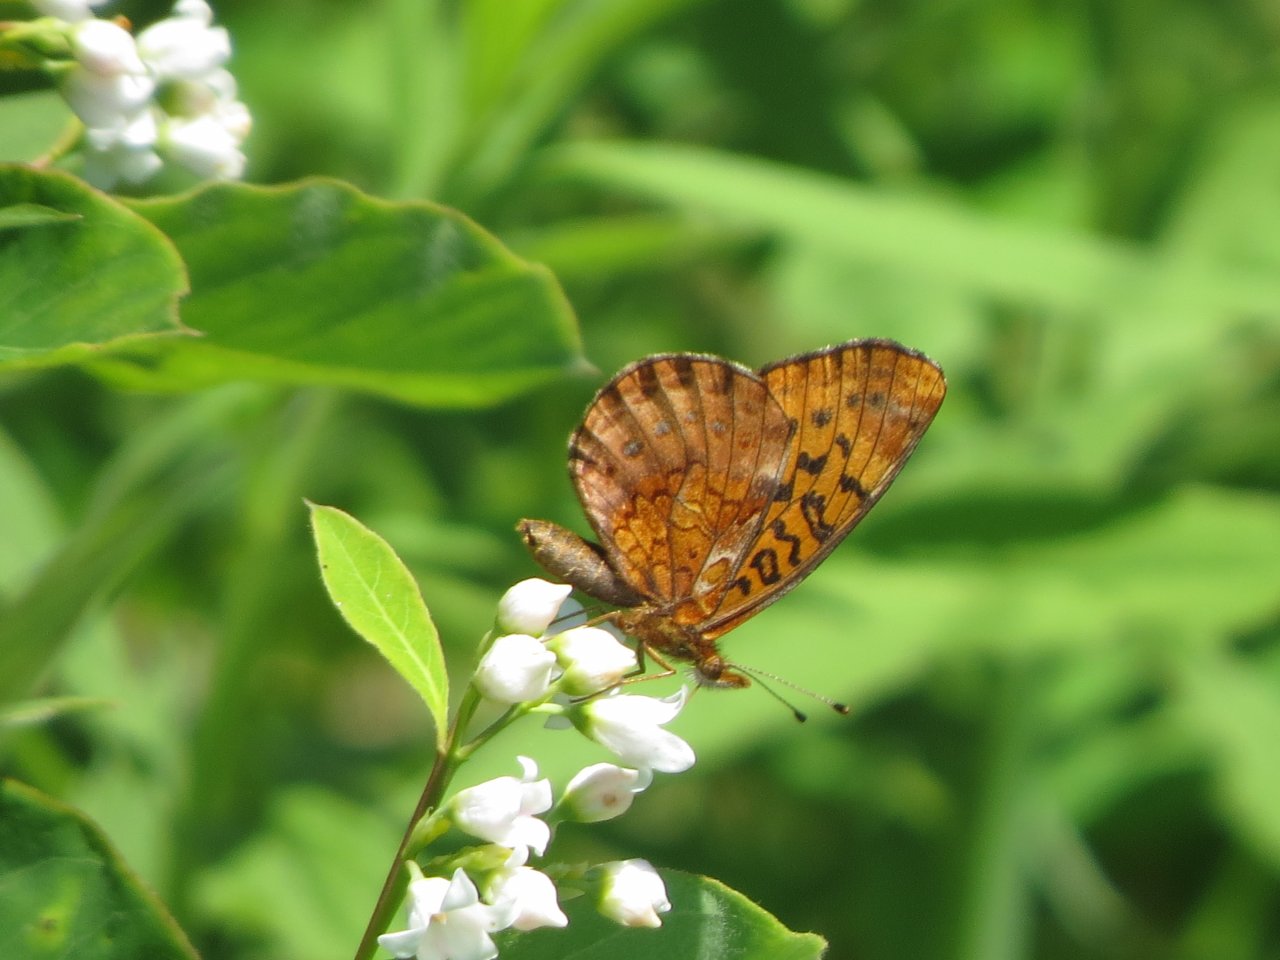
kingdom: Animalia
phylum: Arthropoda
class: Insecta
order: Lepidoptera
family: Nymphalidae
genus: Clossiana
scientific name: Clossiana toddi
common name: Meadow Fritillary
